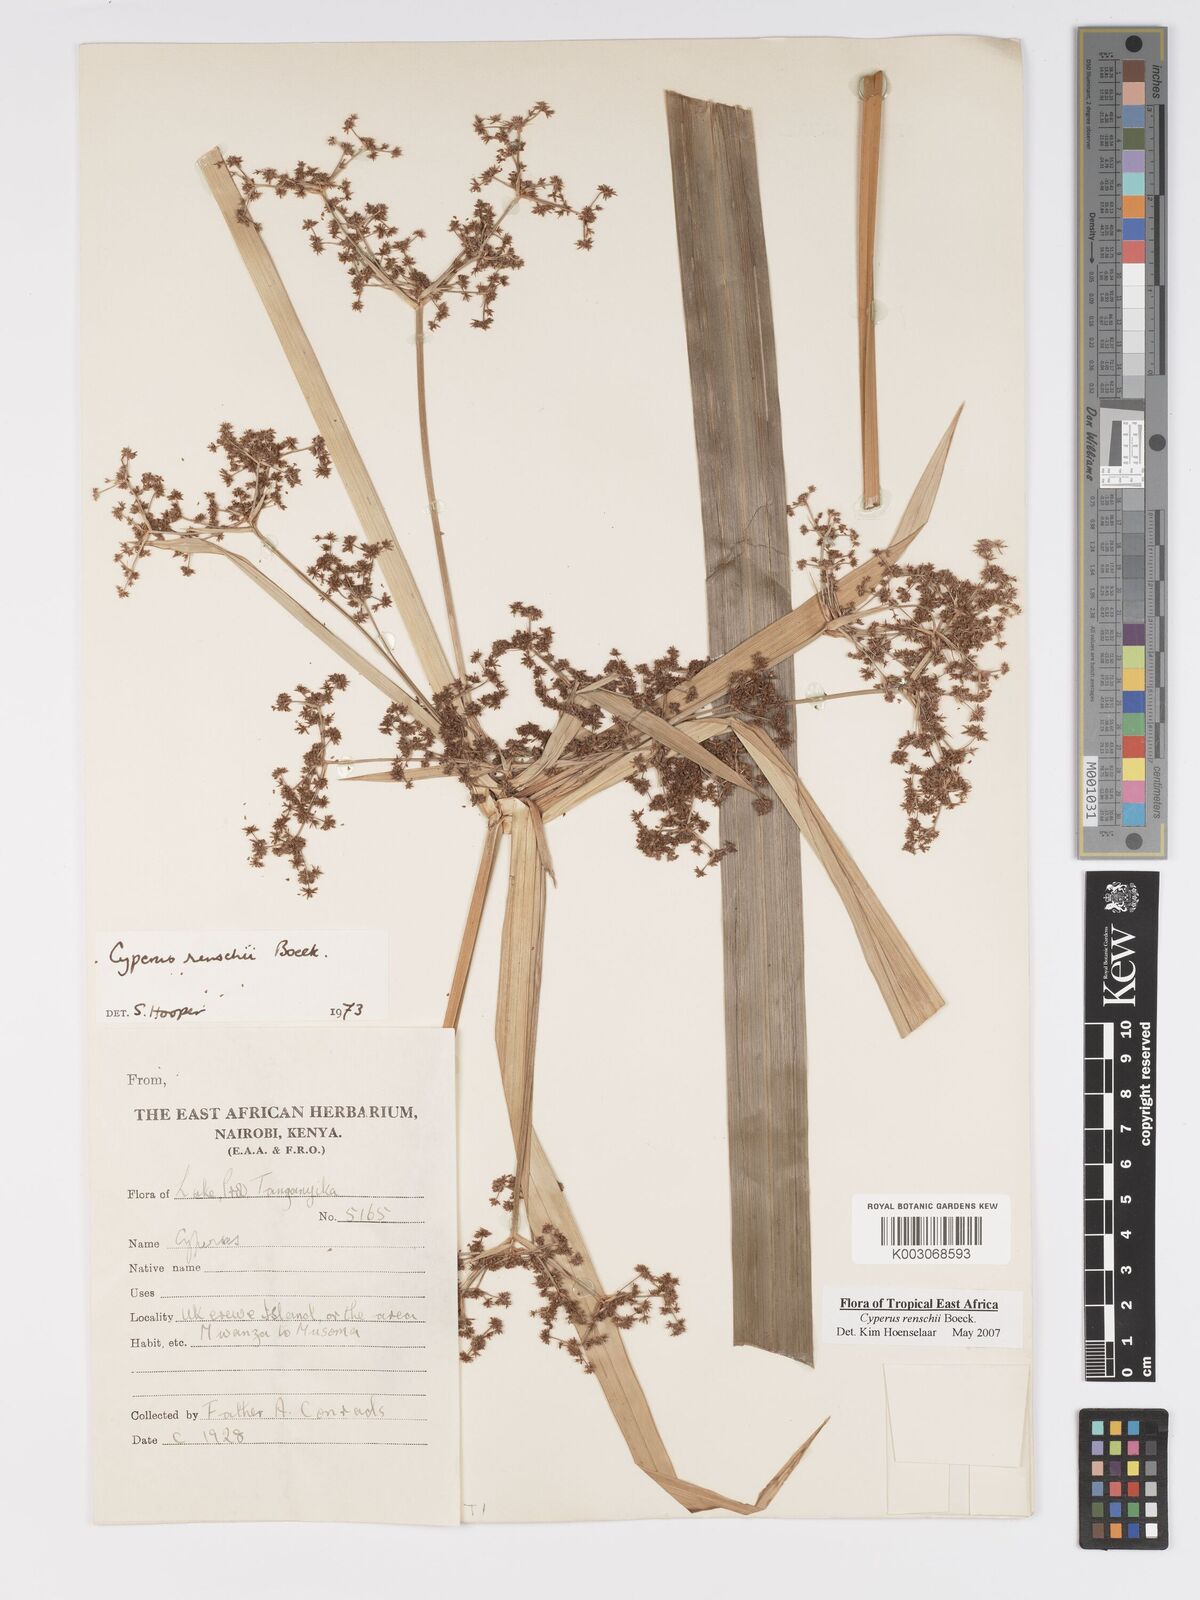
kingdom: Plantae
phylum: Tracheophyta
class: Liliopsida
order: Poales
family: Cyperaceae
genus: Cyperus
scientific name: Cyperus renschii
